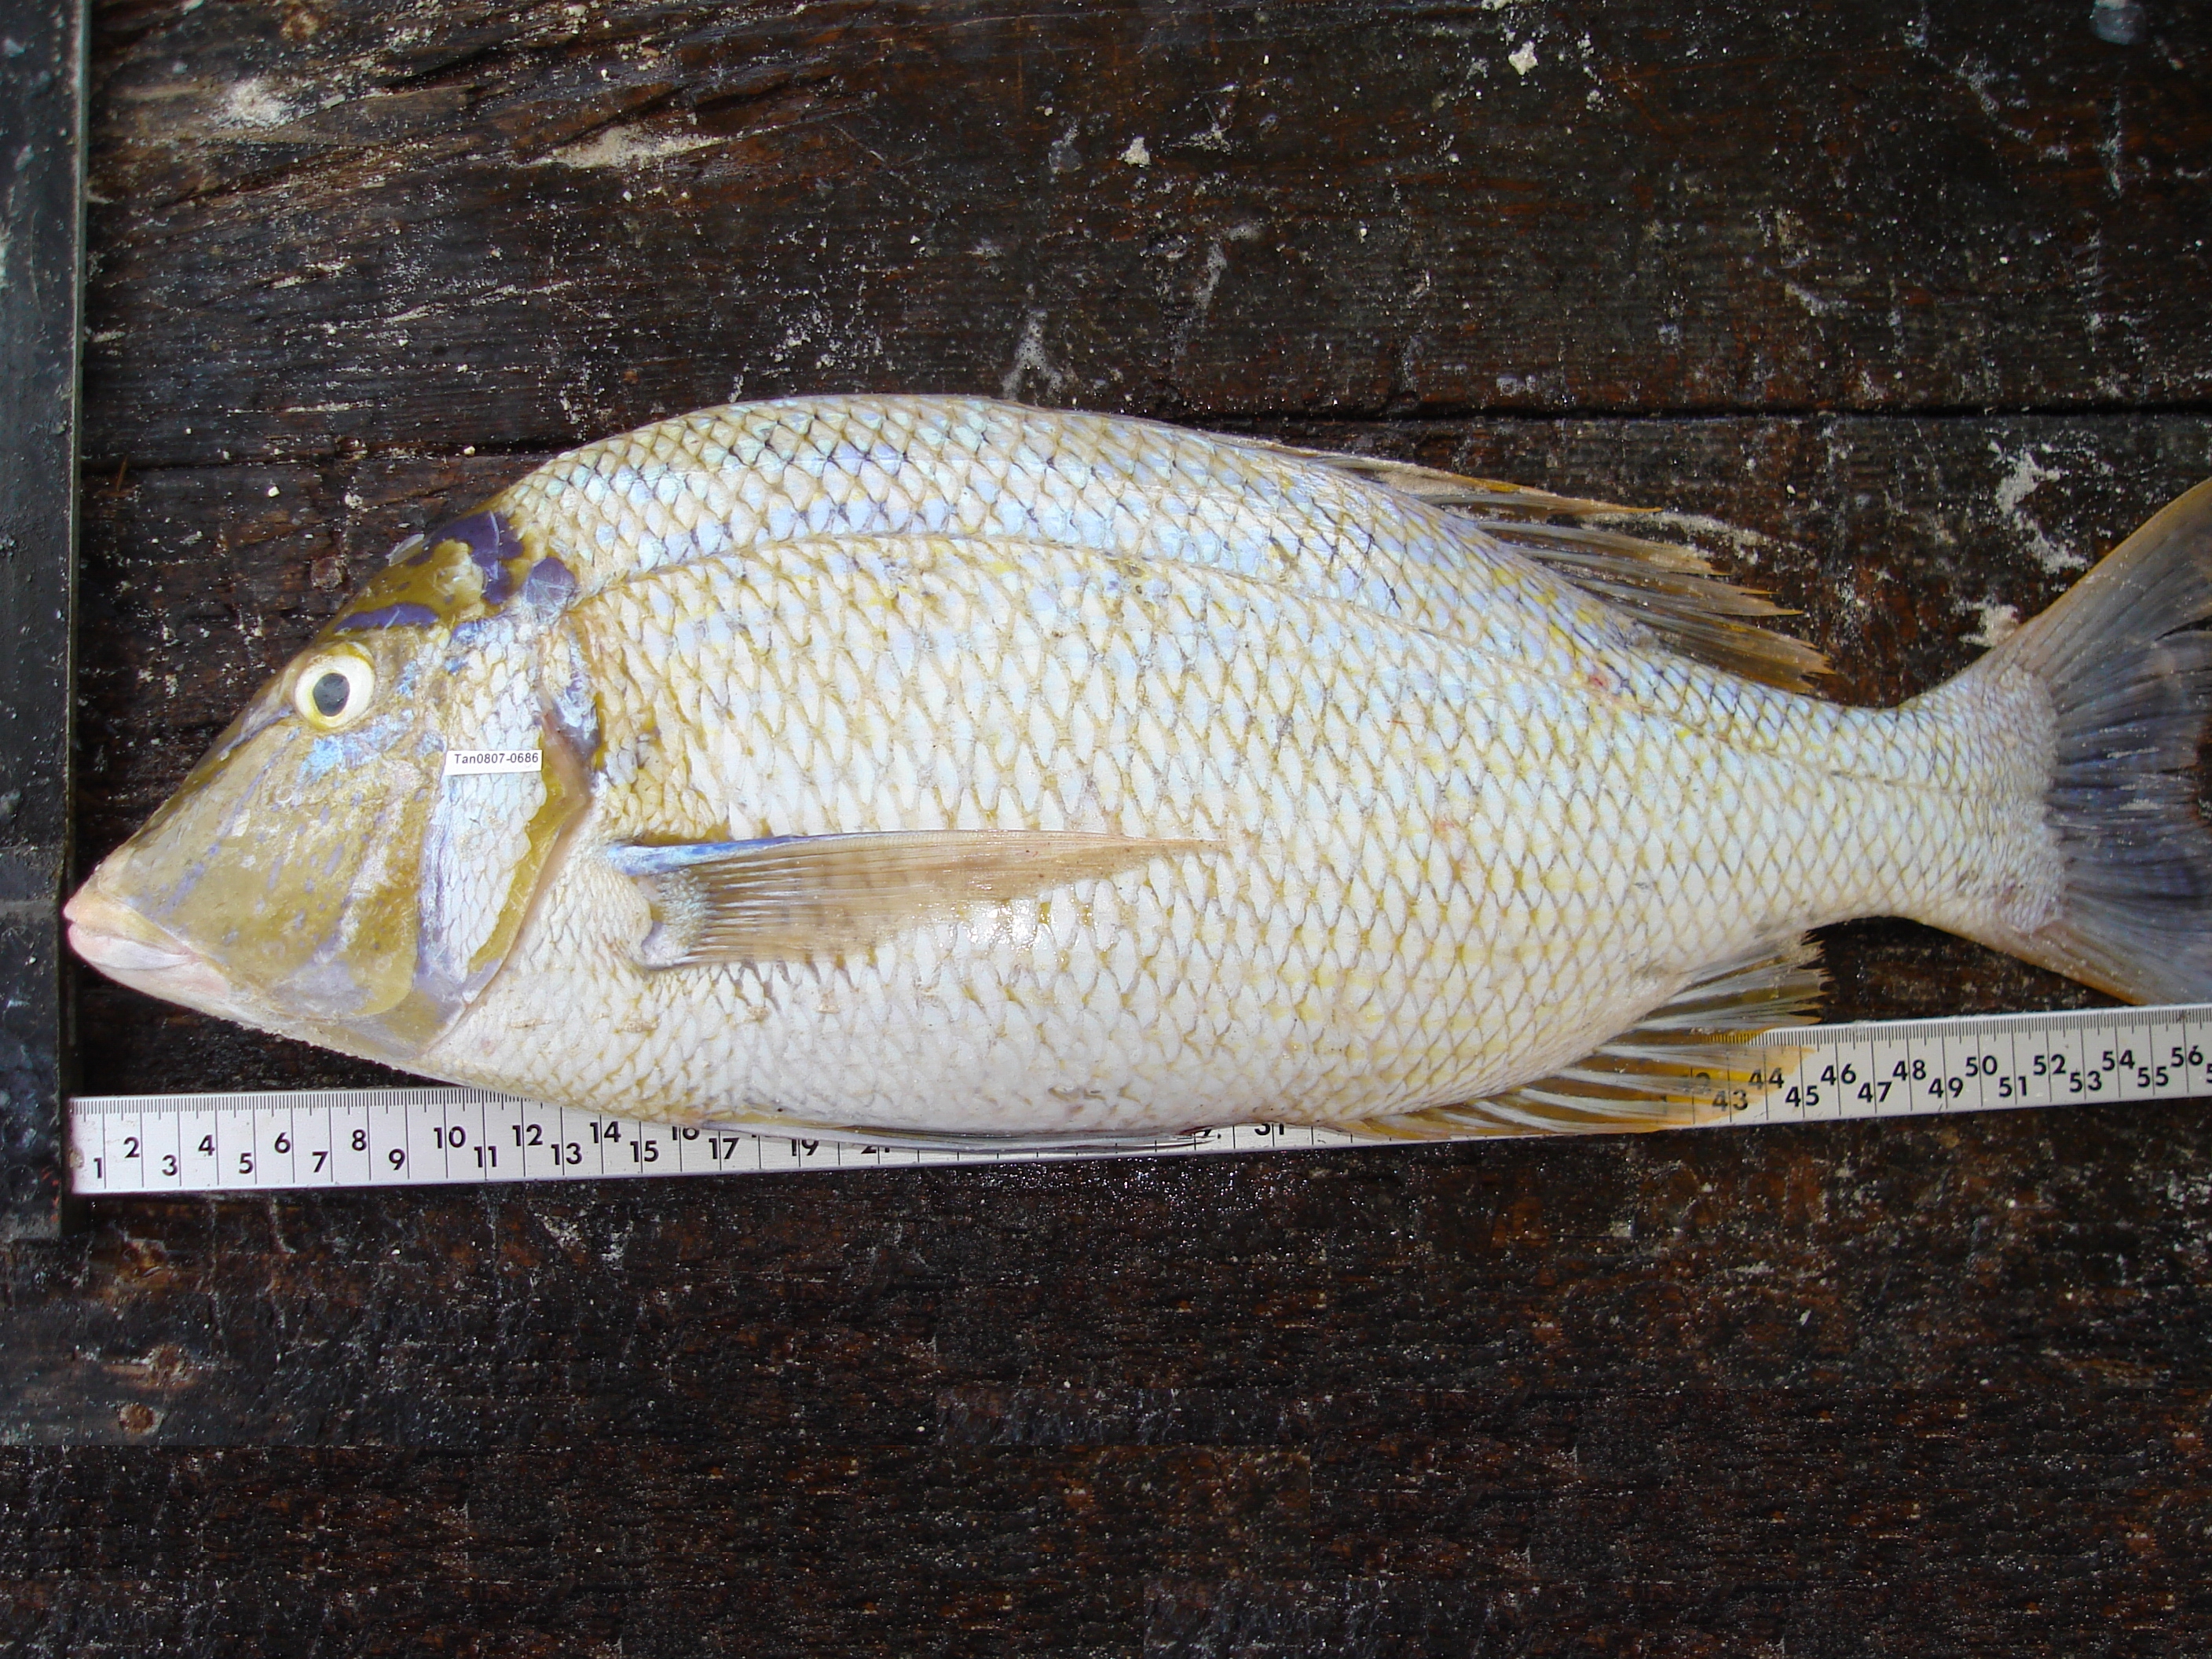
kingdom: Animalia
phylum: Chordata
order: Perciformes
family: Lethrinidae
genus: Lethrinus
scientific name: Lethrinus nebulosus
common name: Spangled emperor
